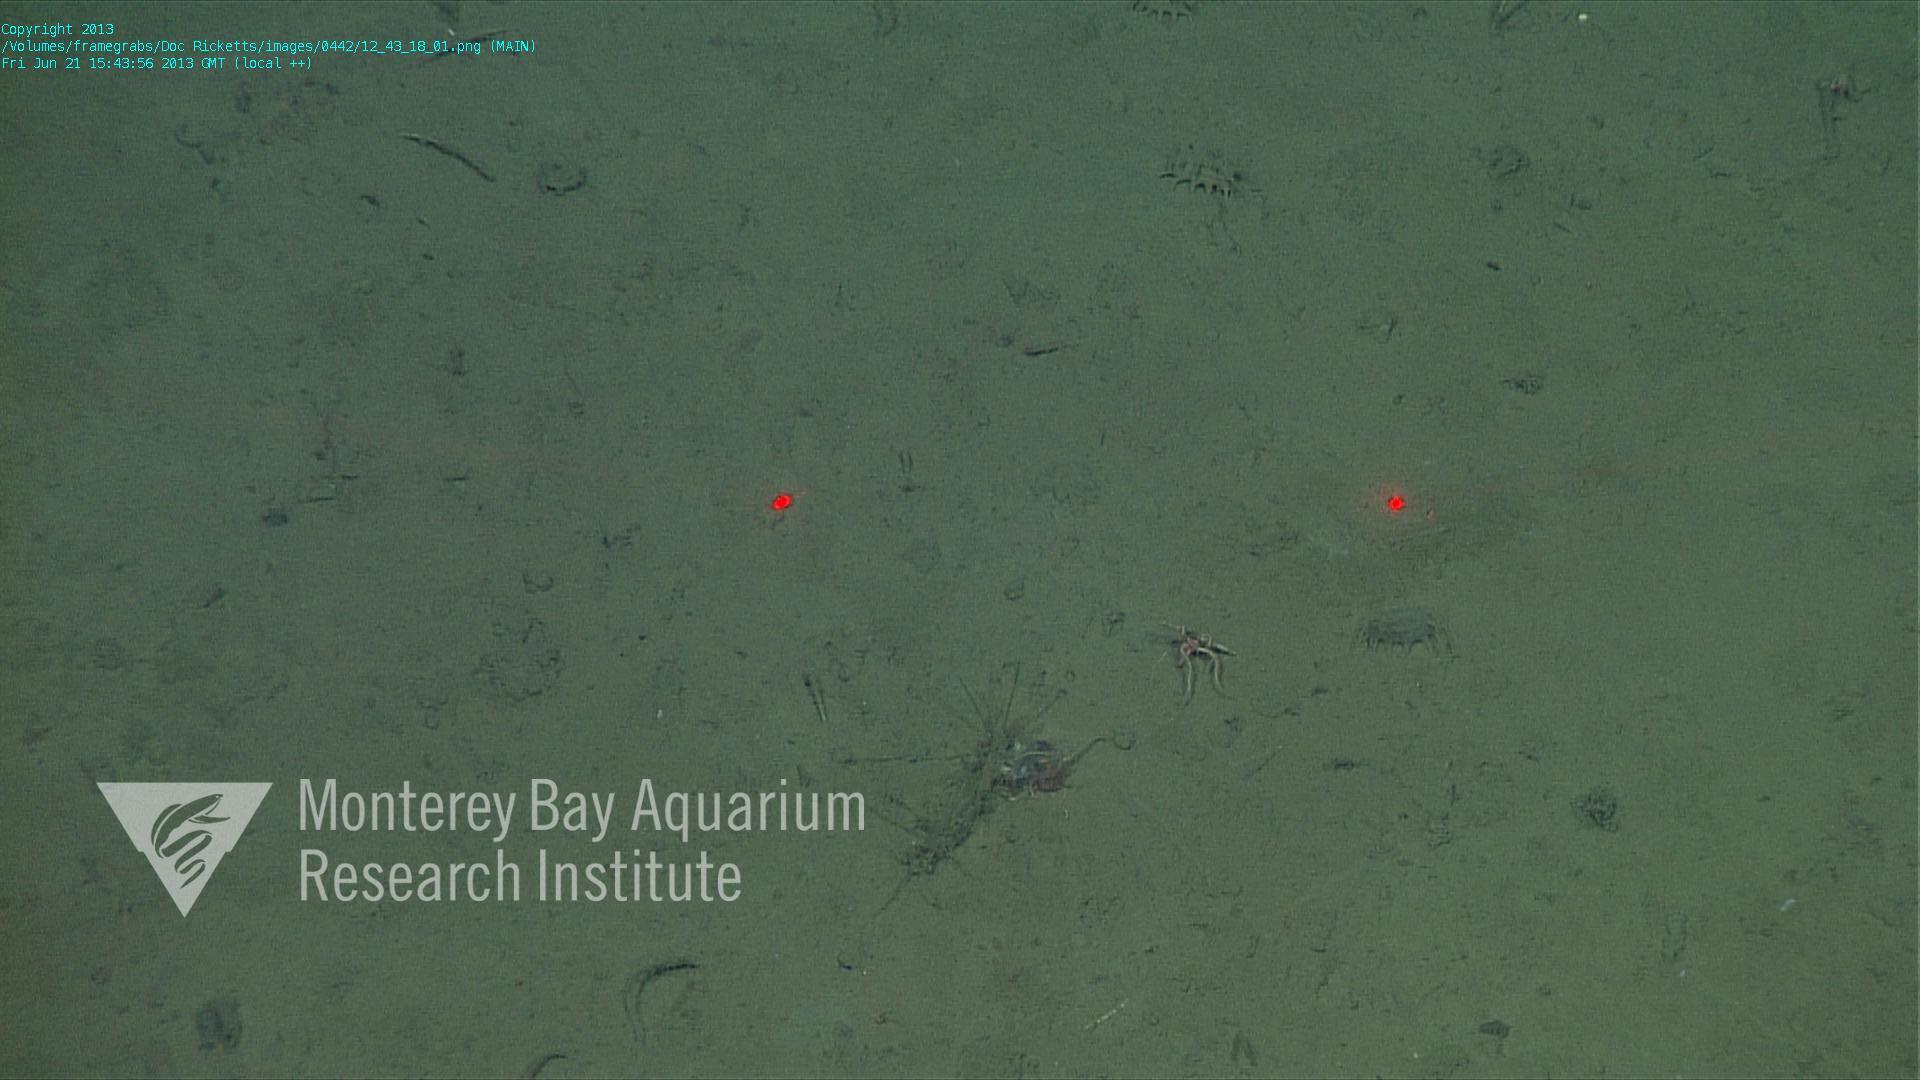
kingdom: Animalia
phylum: Porifera
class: Demospongiae
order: Poecilosclerida
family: Cladorhizidae
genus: Cladorhiza
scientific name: Cladorhiza
